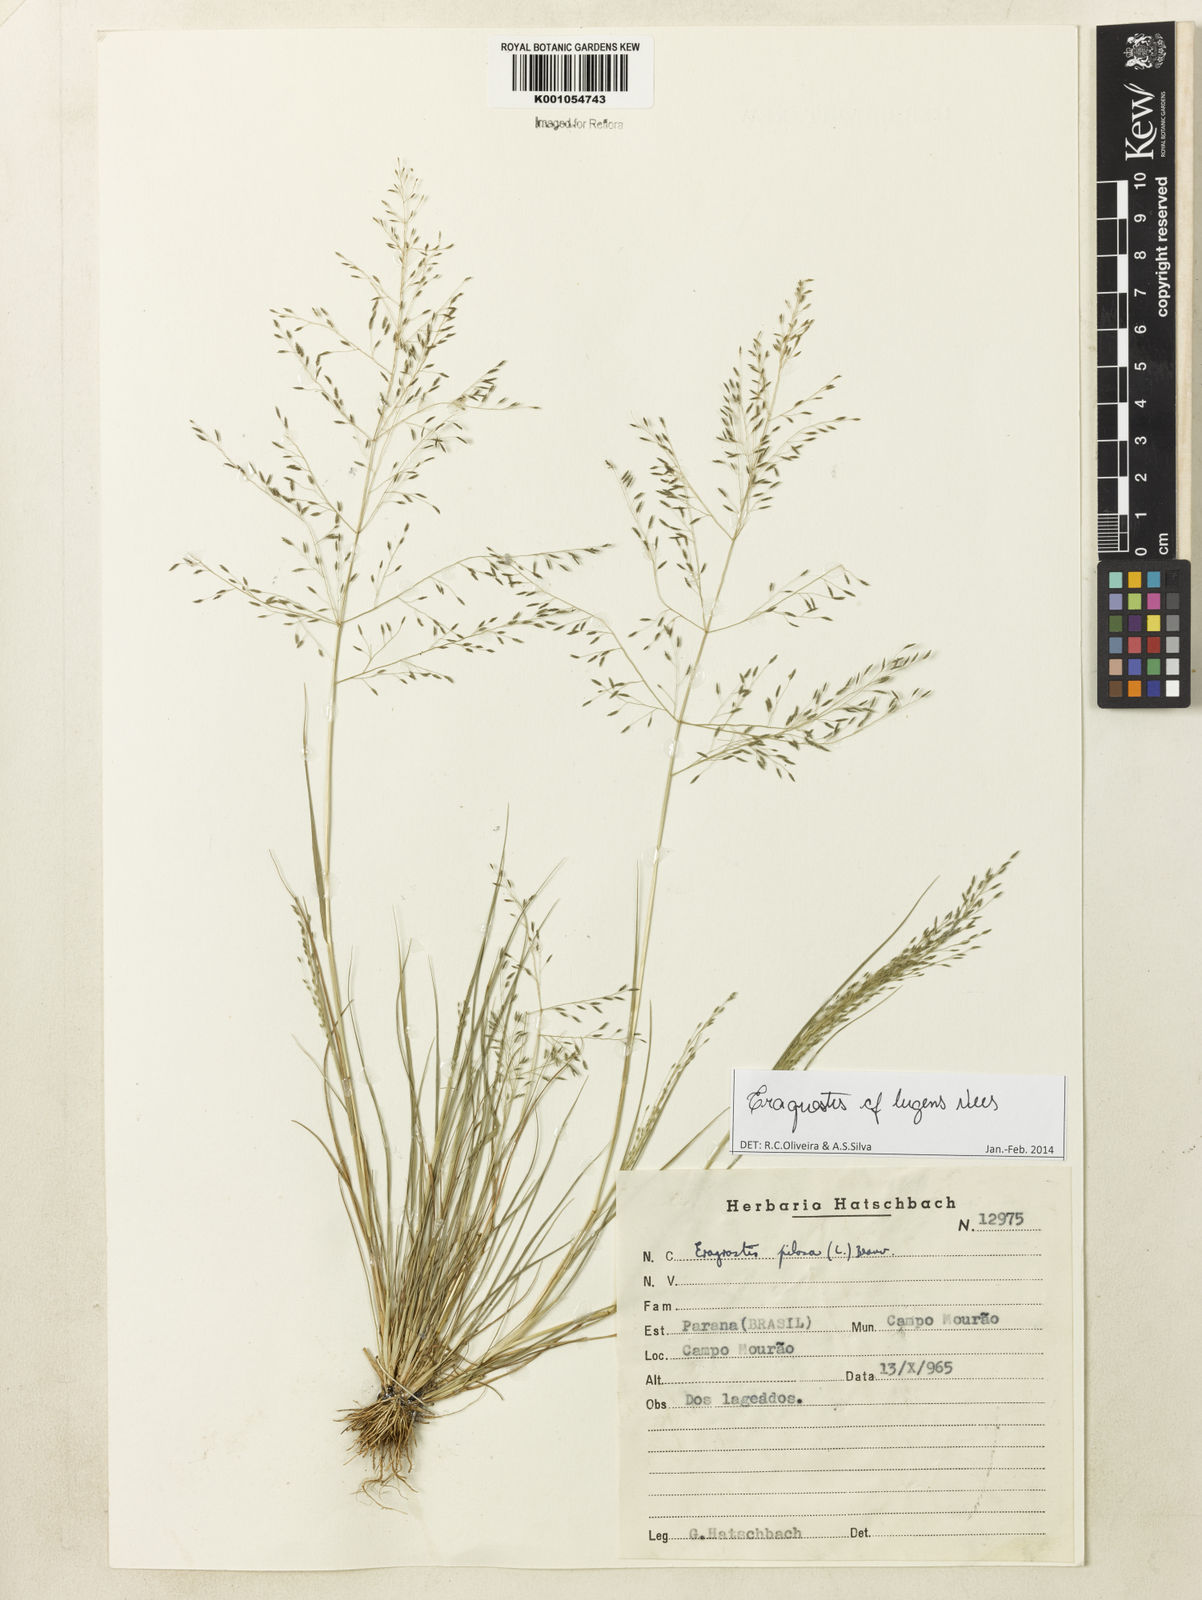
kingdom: Plantae
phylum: Tracheophyta
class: Liliopsida
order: Poales
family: Poaceae
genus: Eragrostis
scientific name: Eragrostis lugens
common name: Mourning love grass
